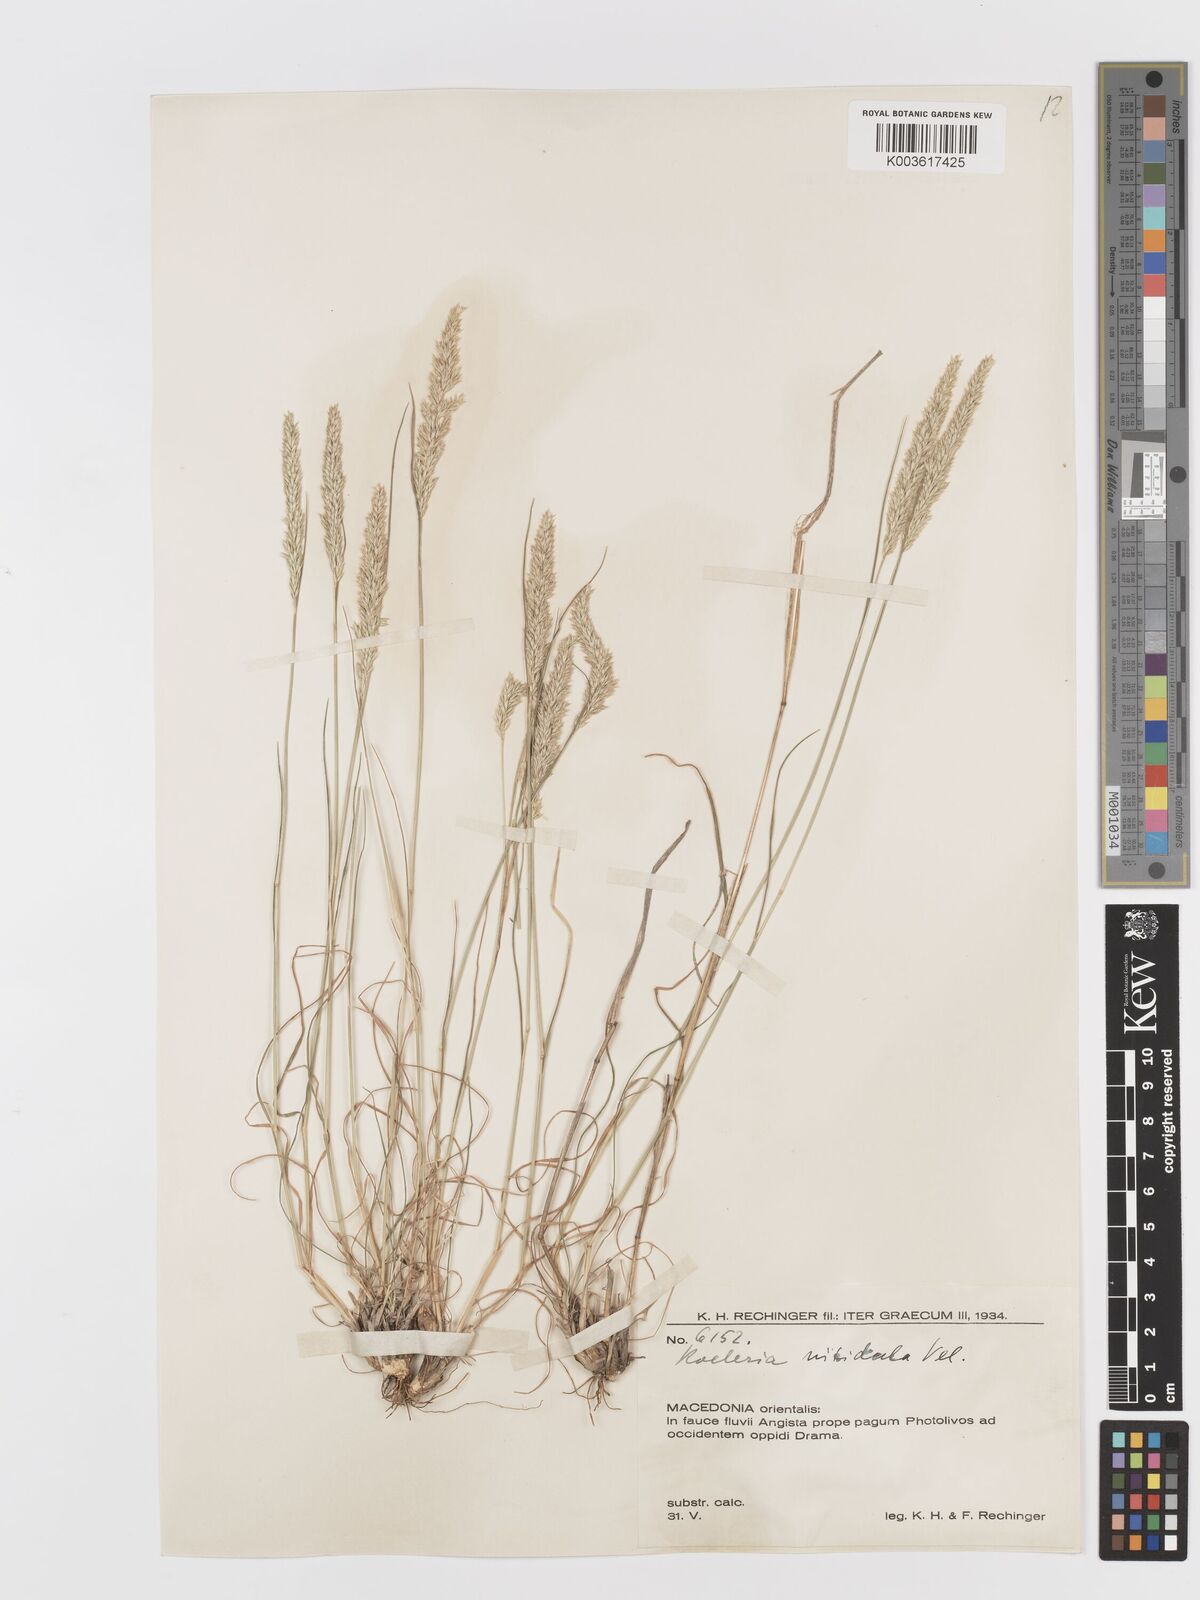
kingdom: Plantae
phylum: Tracheophyta
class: Liliopsida
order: Poales
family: Poaceae
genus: Koeleria
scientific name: Koeleria nitidula
